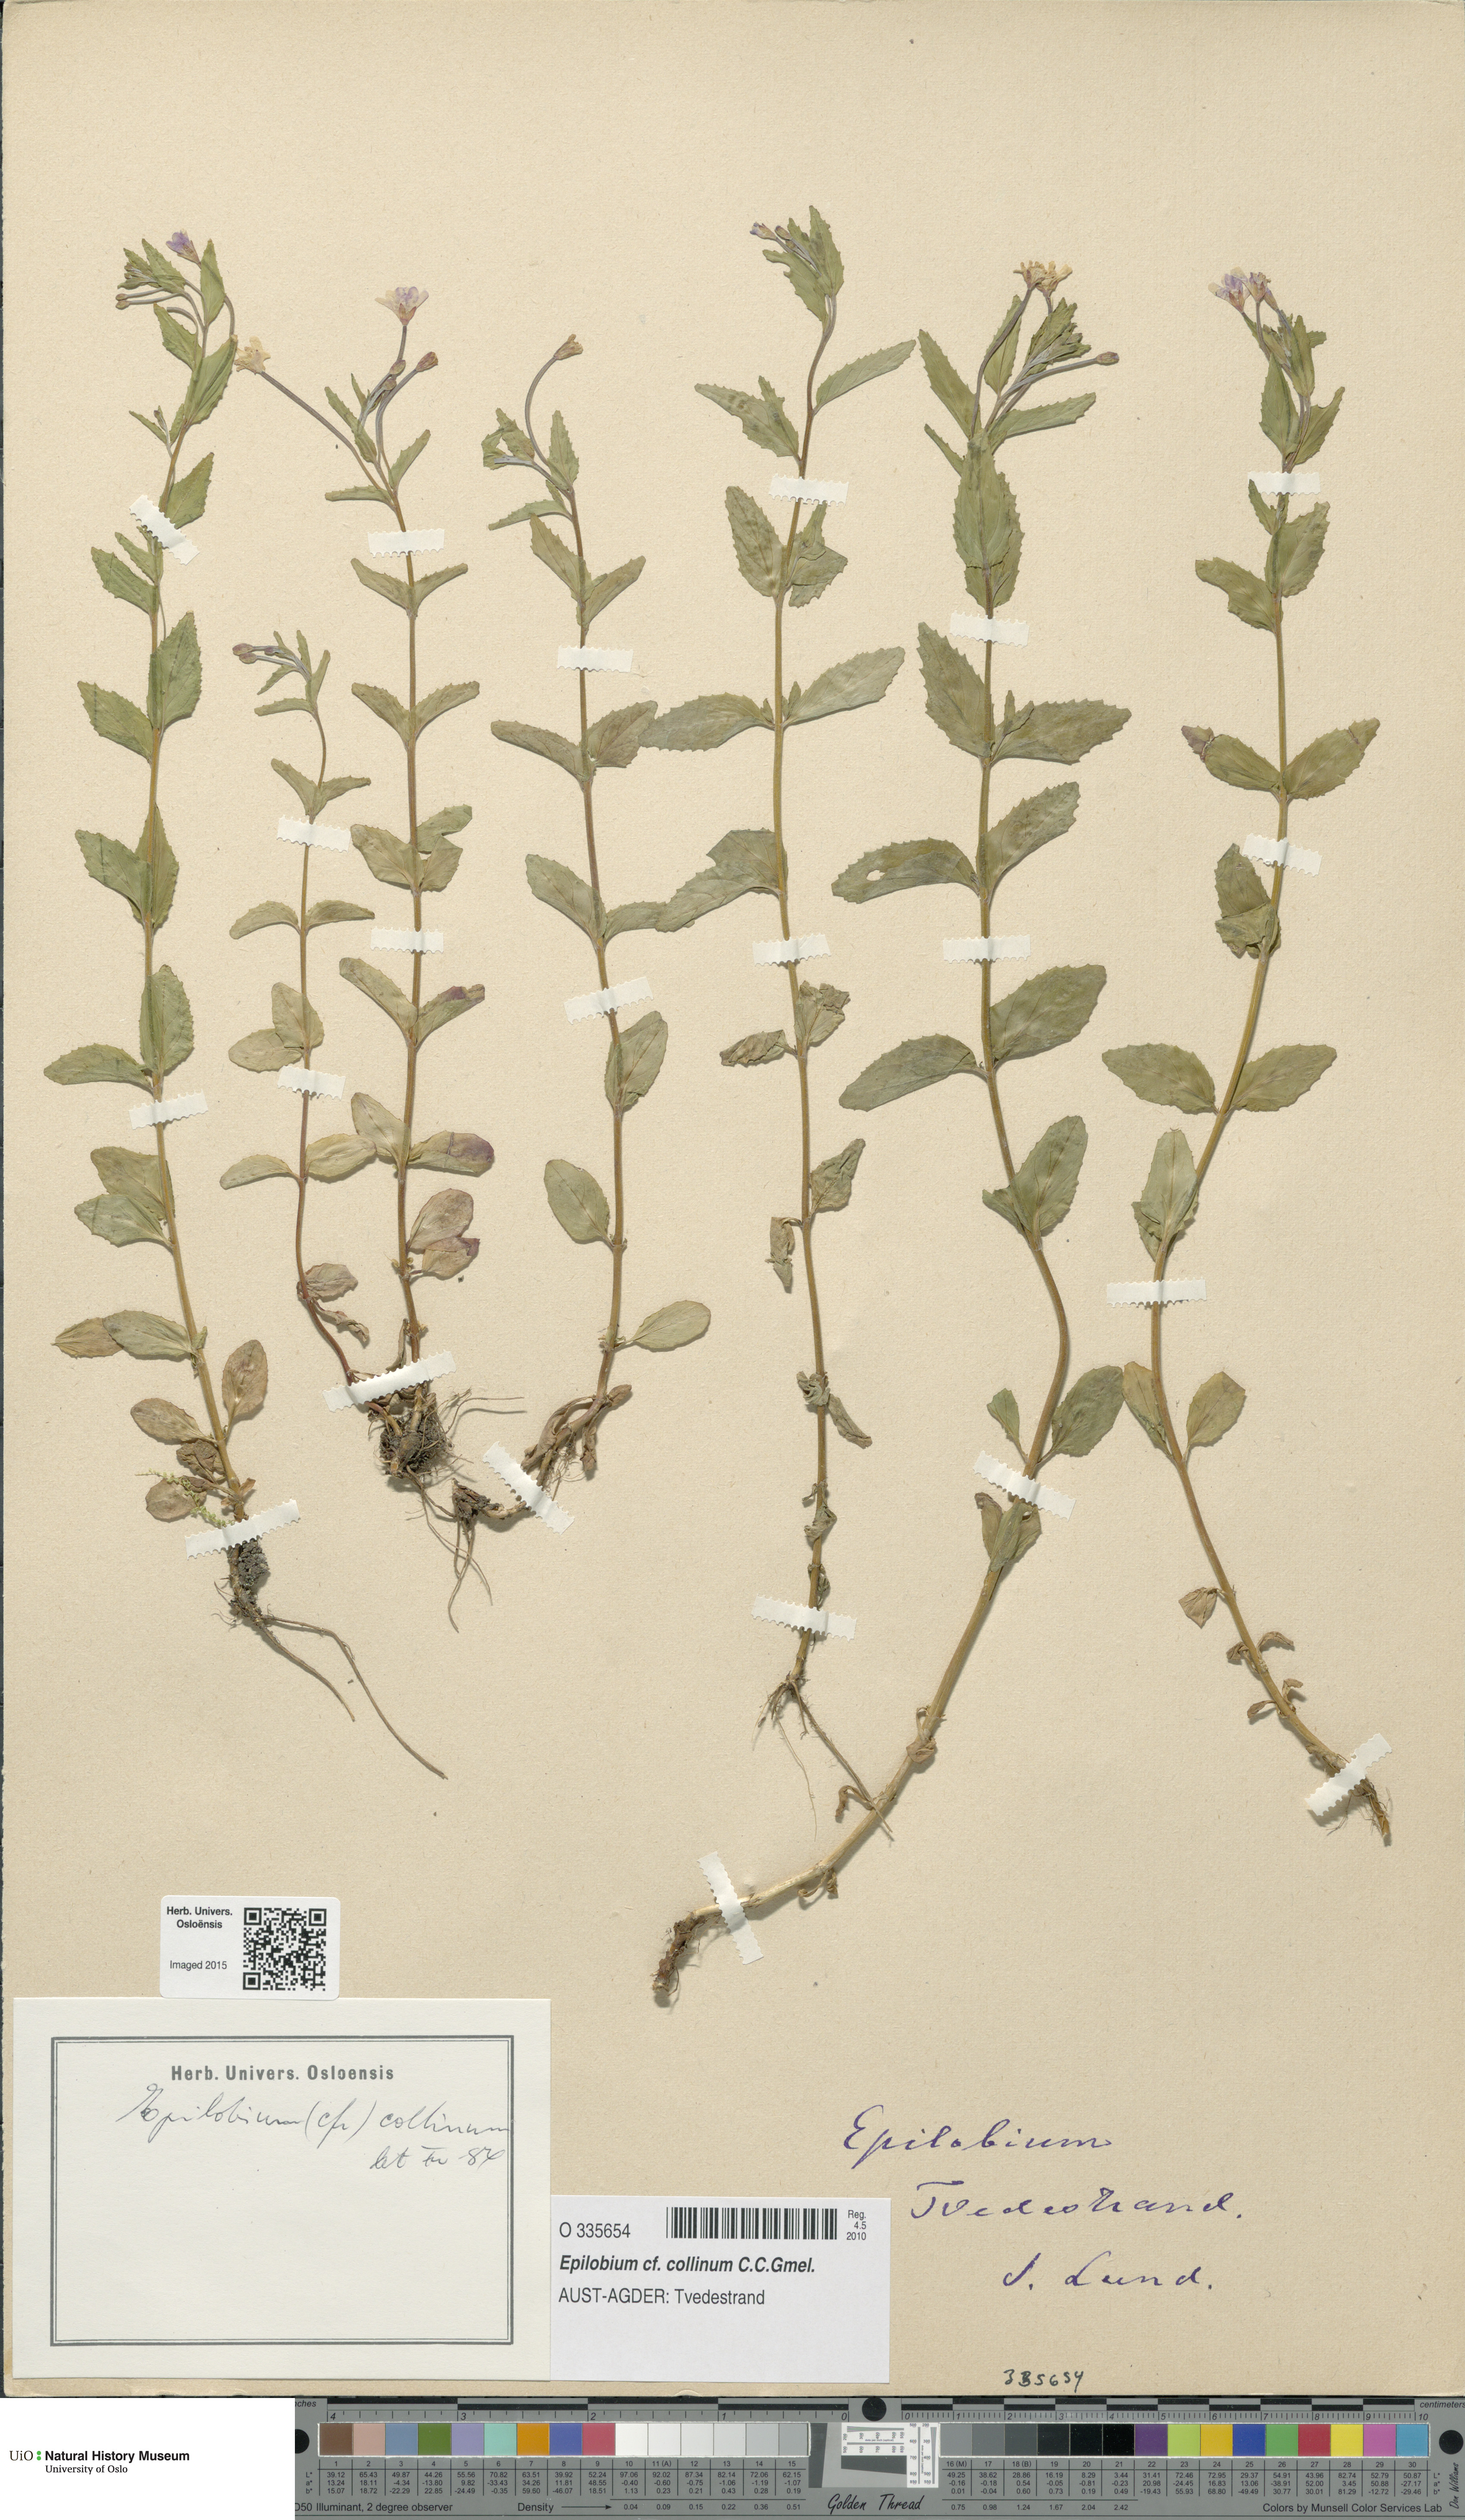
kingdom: Plantae
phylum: Tracheophyta
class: Magnoliopsida
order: Myrtales
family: Onagraceae
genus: Epilobium
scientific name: Epilobium collinum
